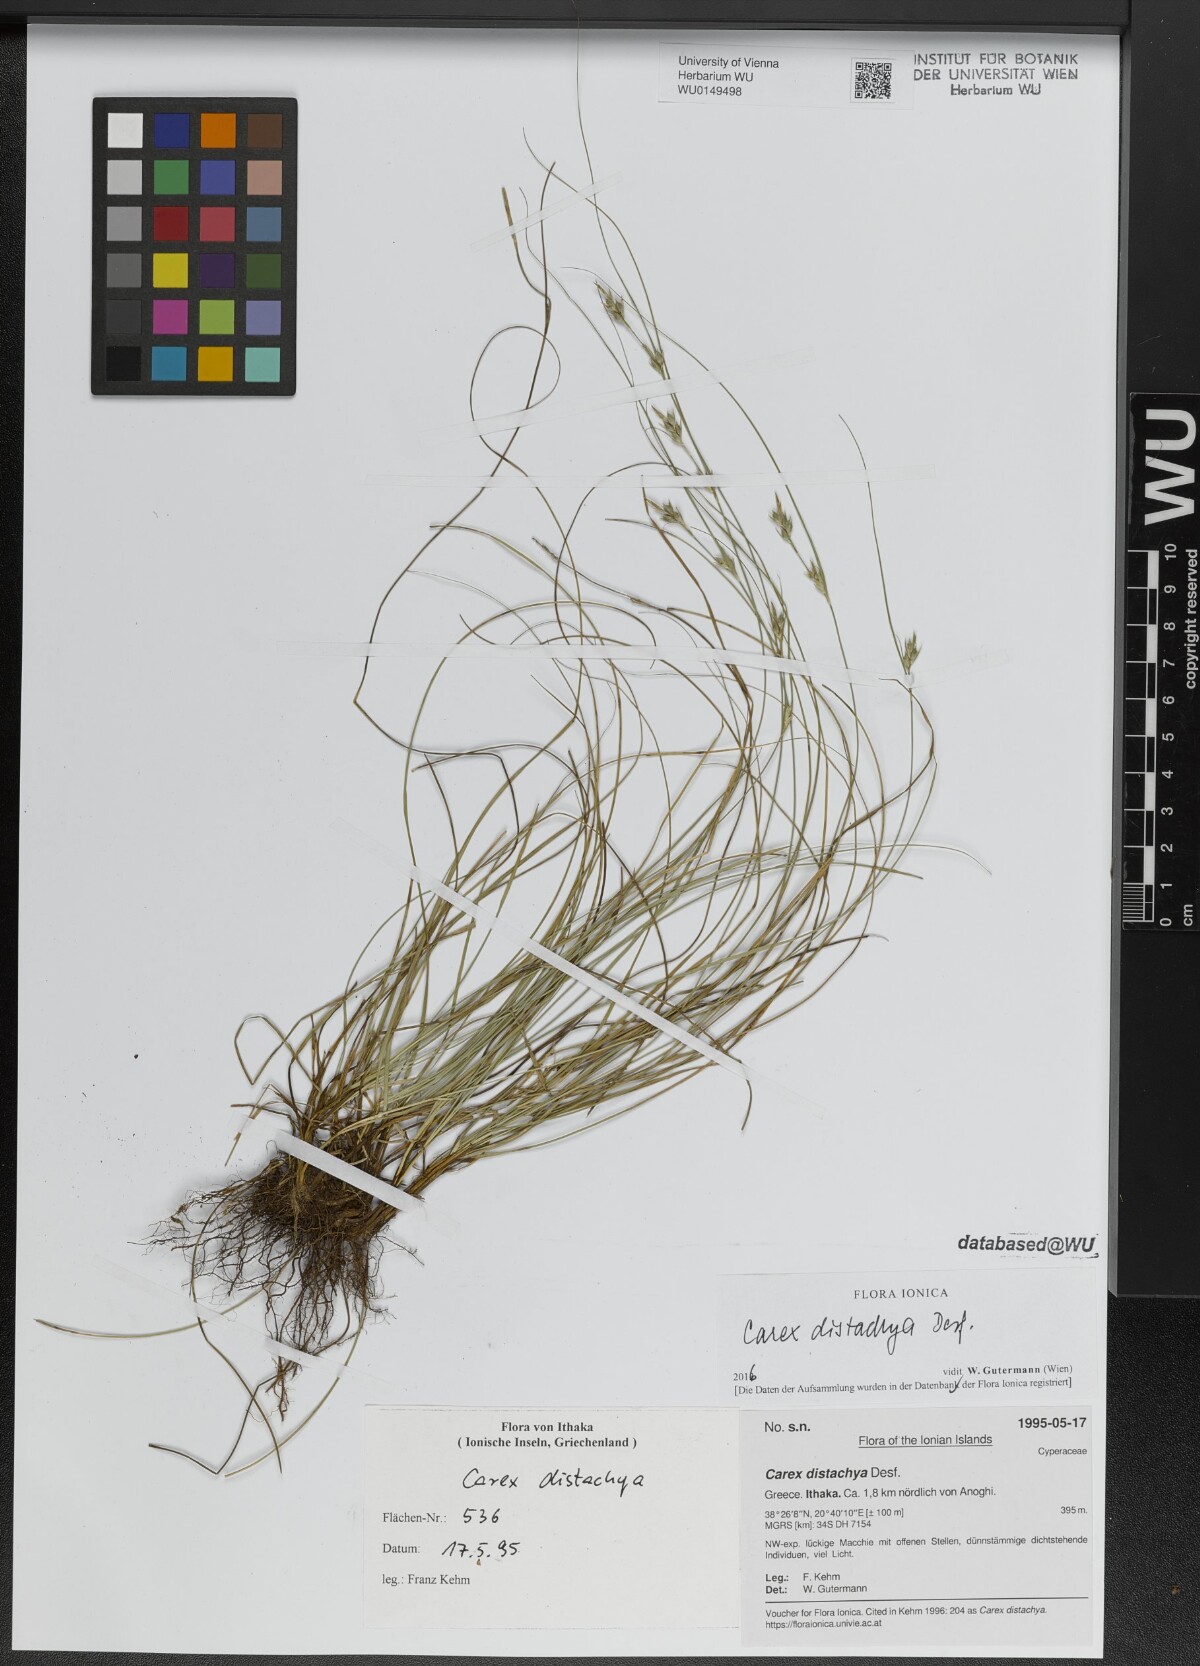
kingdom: Plantae
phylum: Tracheophyta
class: Liliopsida
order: Poales
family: Cyperaceae
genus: Carex
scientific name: Carex distachya
